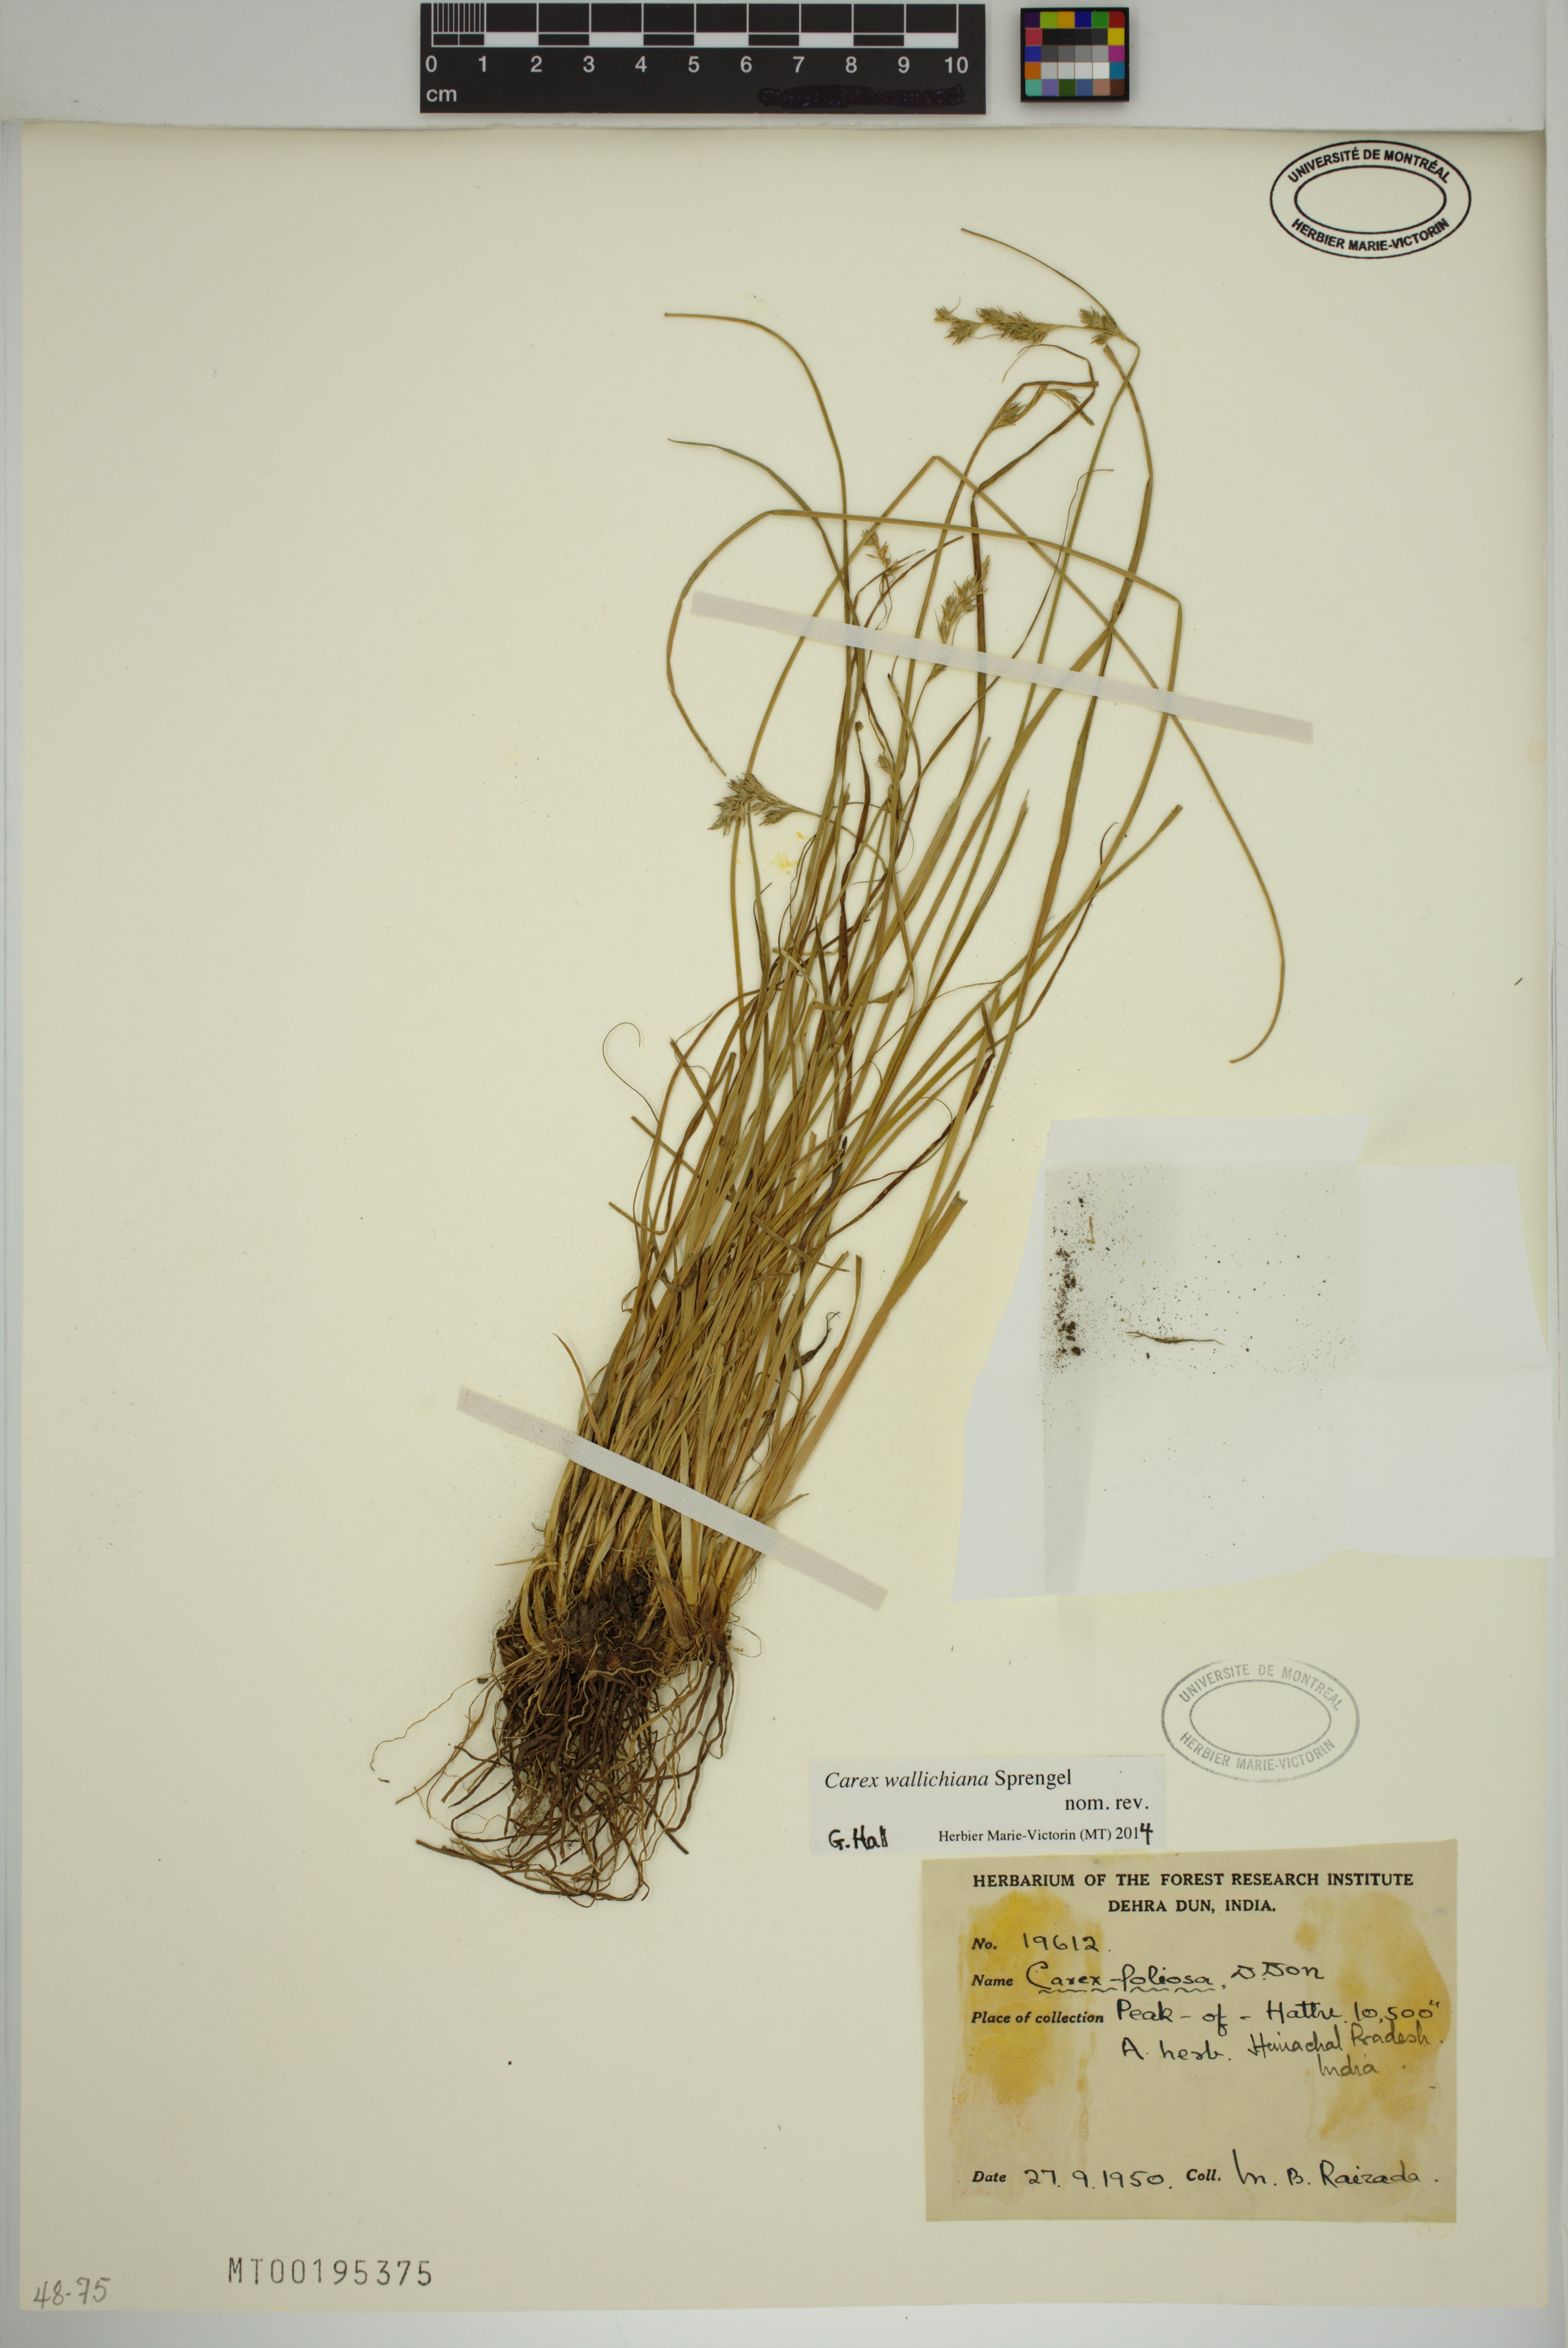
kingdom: Plantae
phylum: Tracheophyta
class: Liliopsida
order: Poales
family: Cyperaceae
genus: Carex
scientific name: Carex wallichiana
